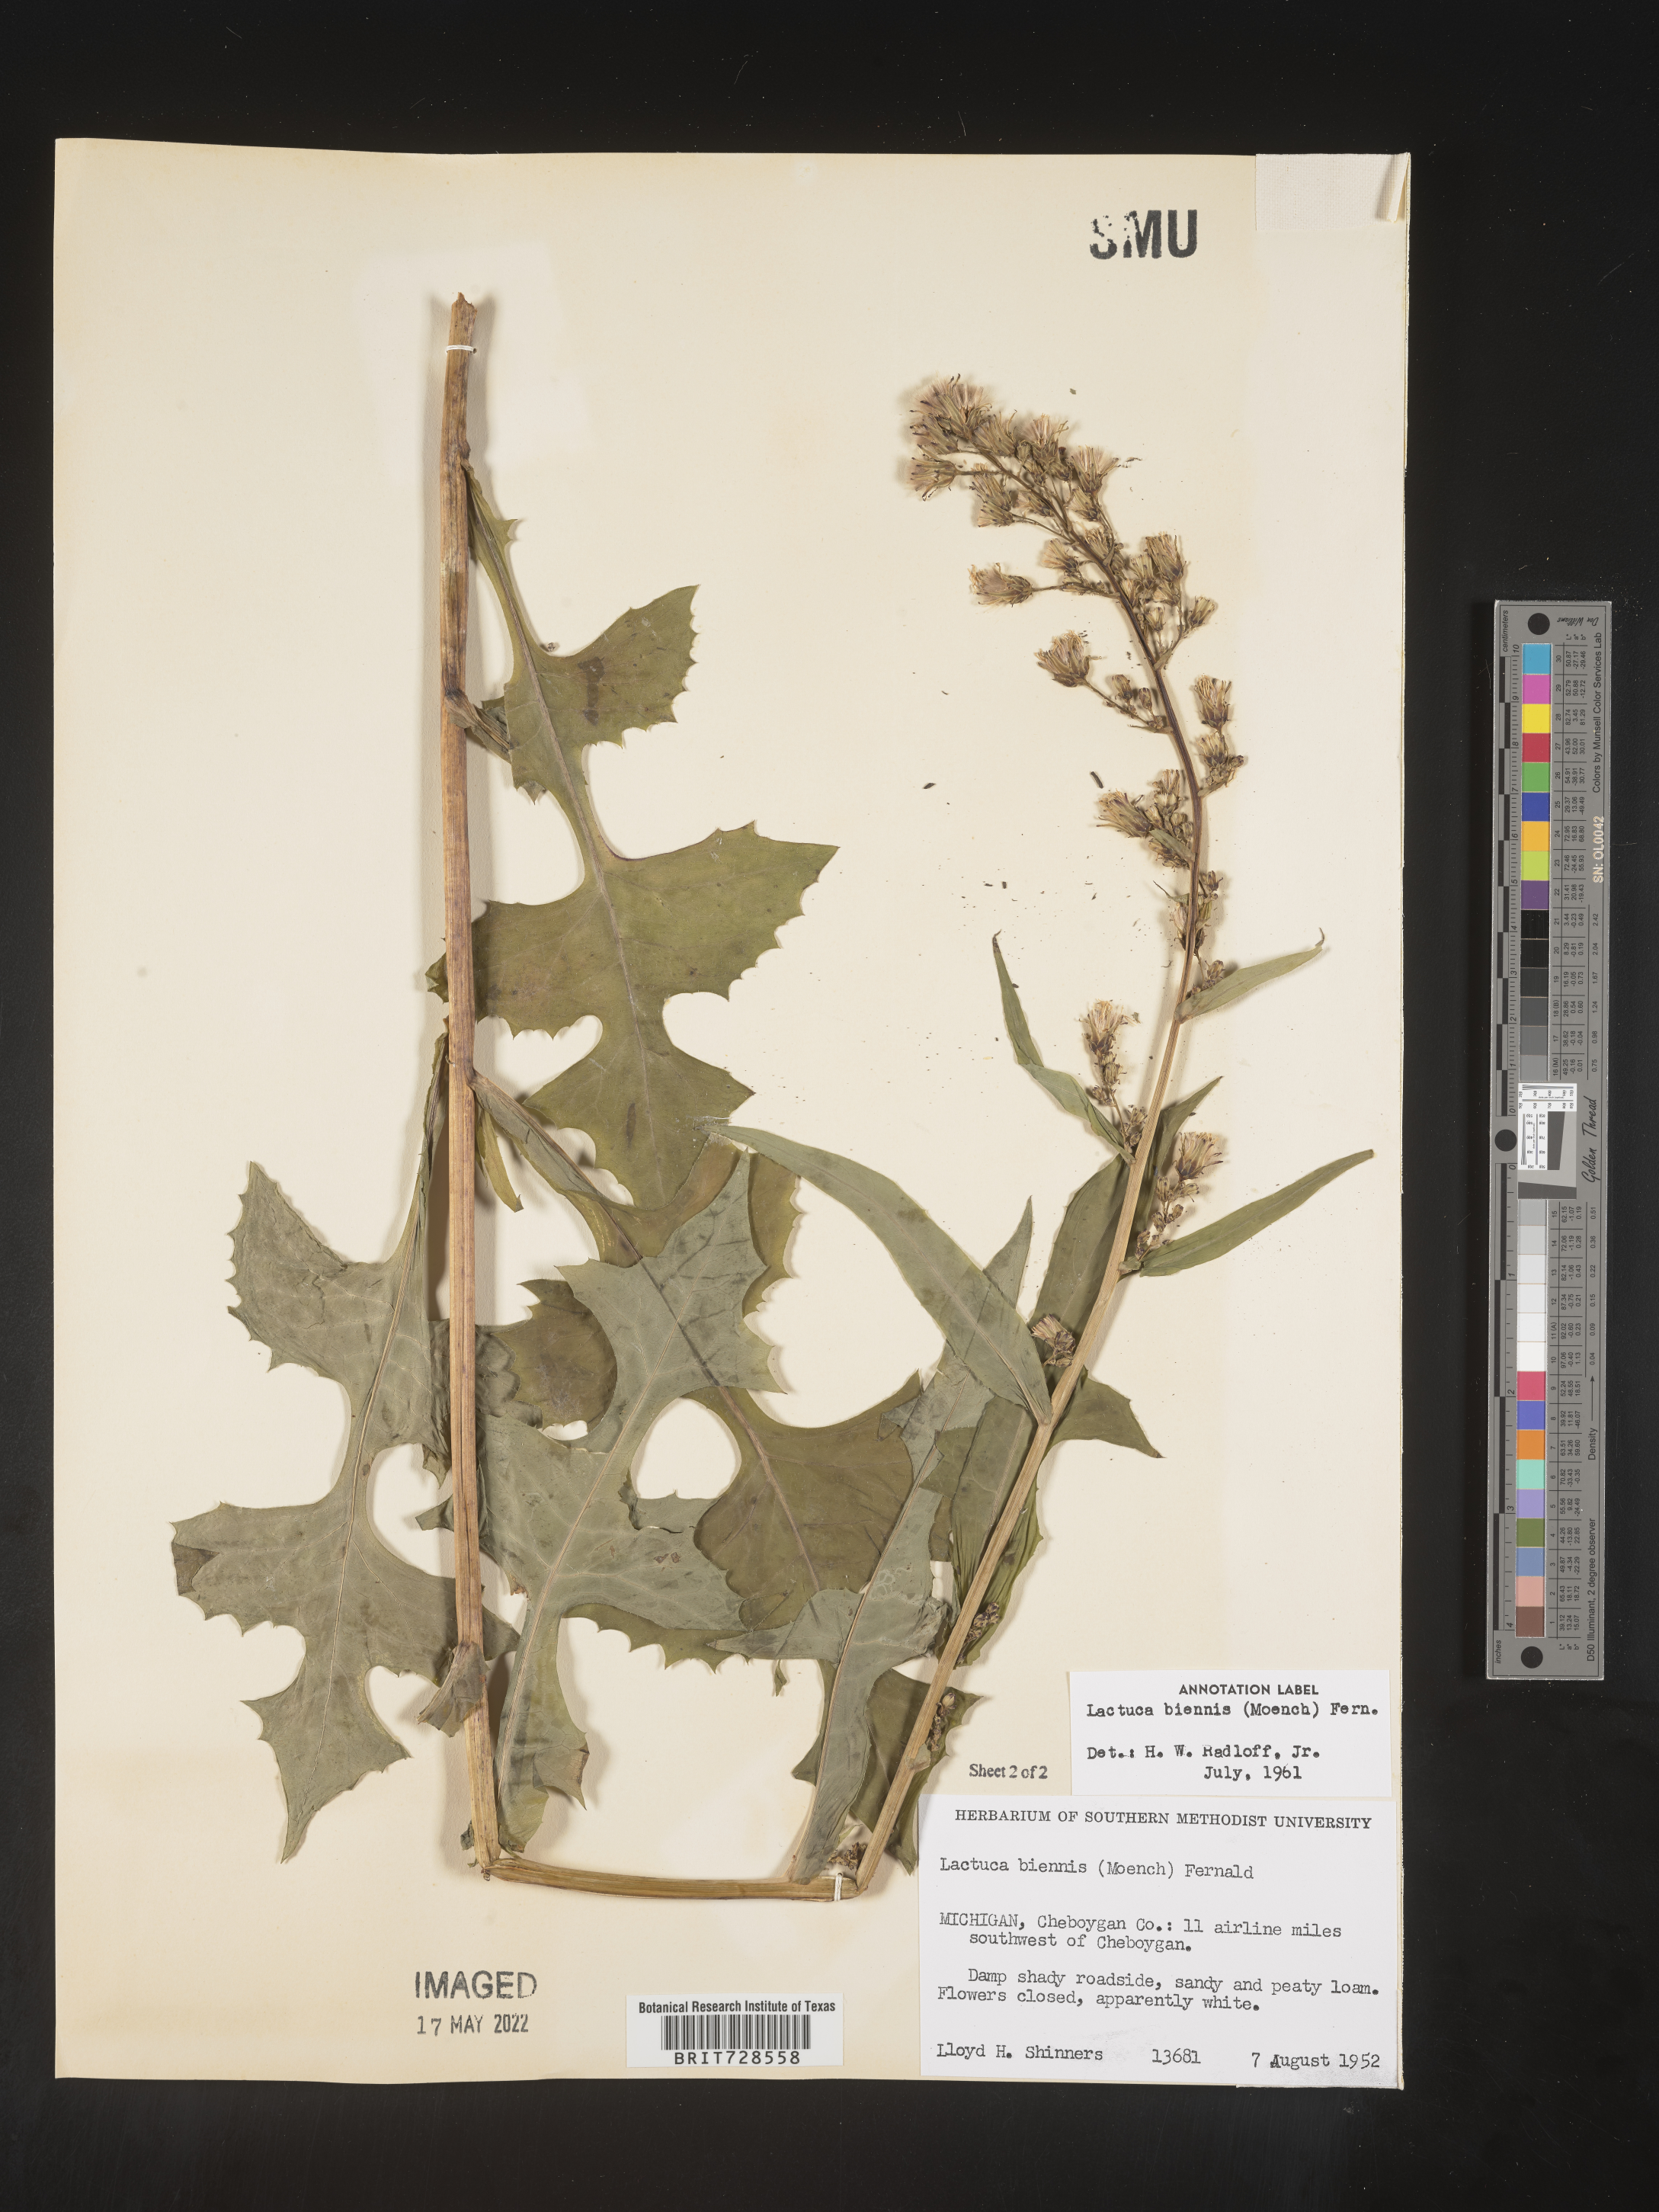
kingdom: Plantae
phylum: Tracheophyta
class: Magnoliopsida
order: Asterales
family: Asteraceae
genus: Lactuca
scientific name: Lactuca biennis
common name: Blue wood lettuce
